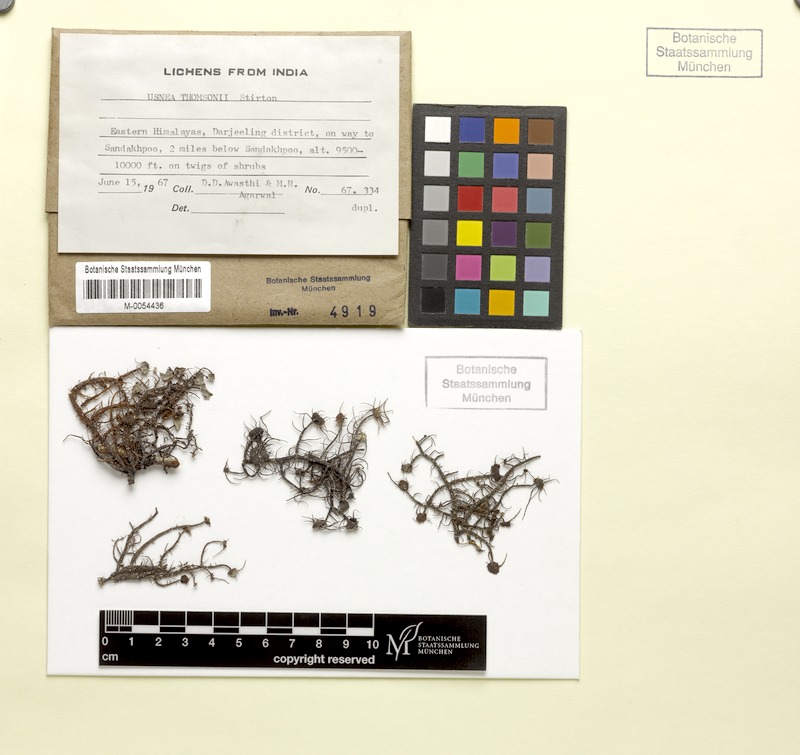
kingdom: Fungi
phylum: Ascomycota
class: Lecanoromycetes
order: Lecanorales
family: Parmeliaceae
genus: Usnea
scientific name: Usnea
